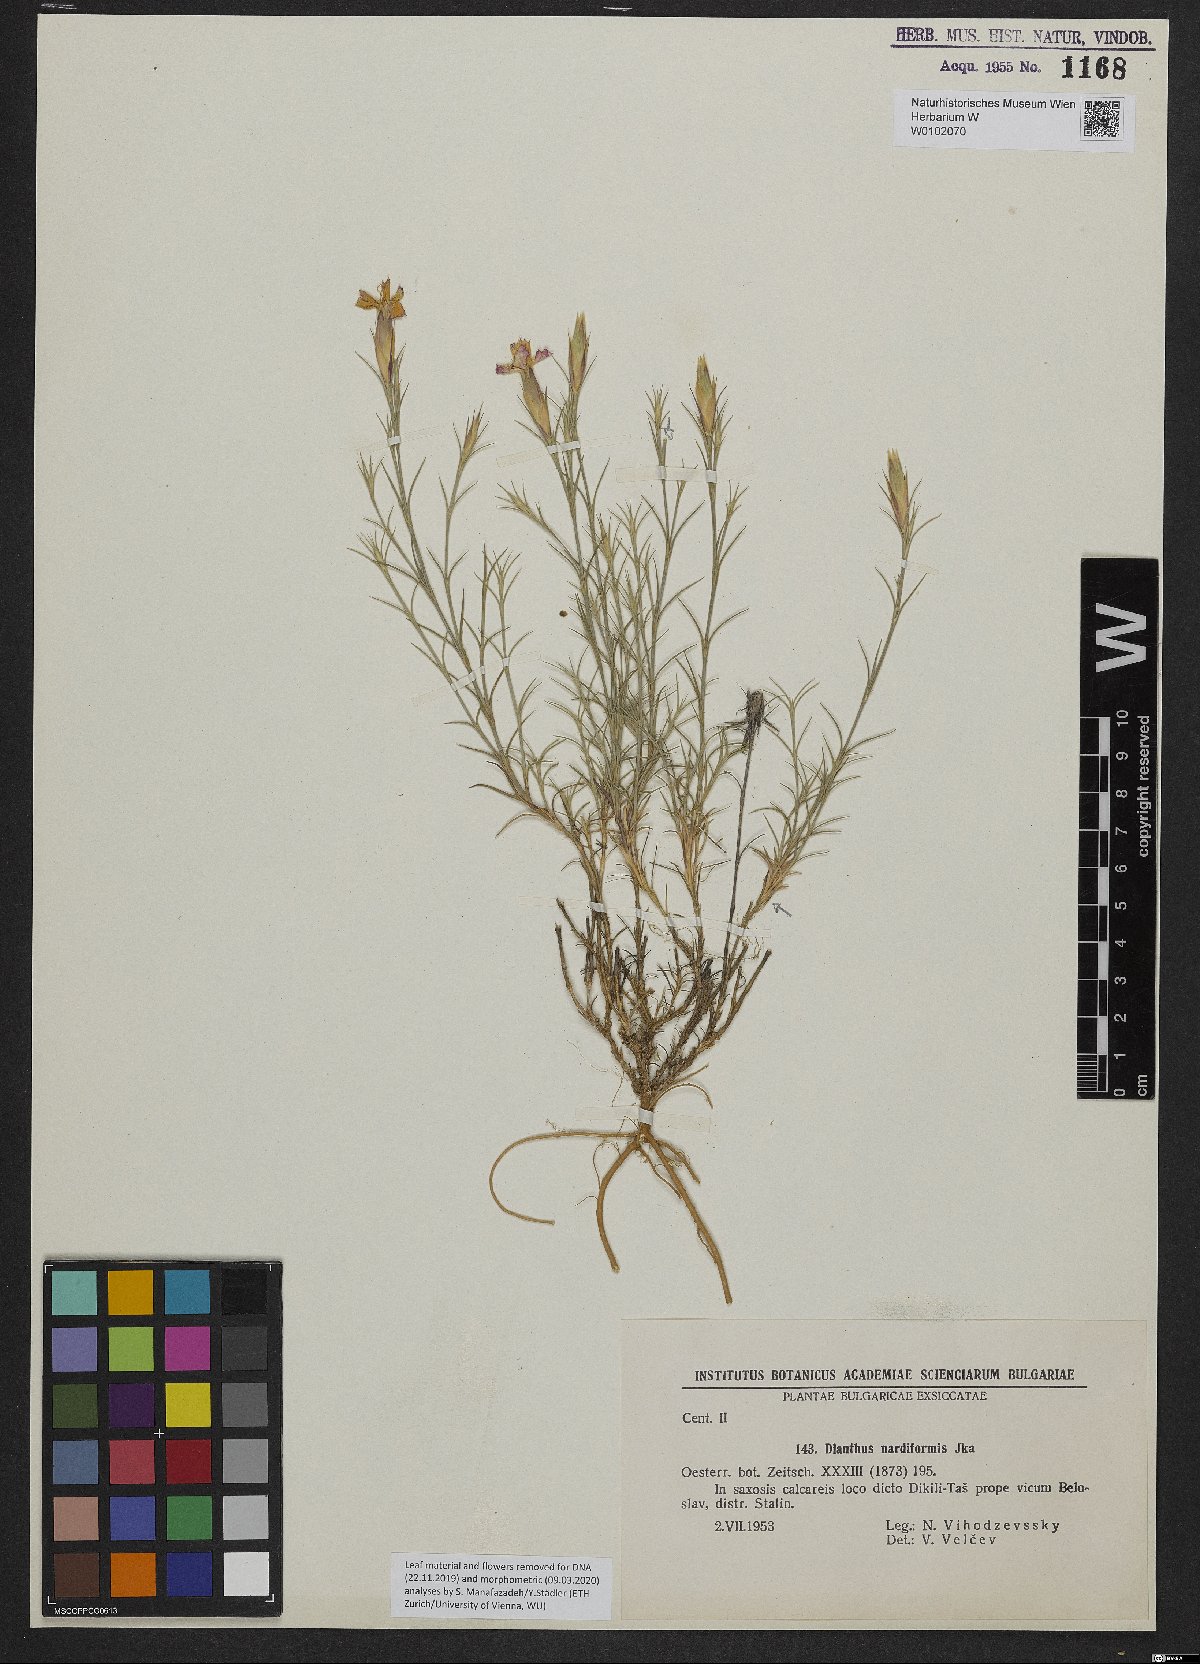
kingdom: Plantae
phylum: Tracheophyta
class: Magnoliopsida
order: Caryophyllales
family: Caryophyllaceae
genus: Dianthus
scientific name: Dianthus nardiformis
